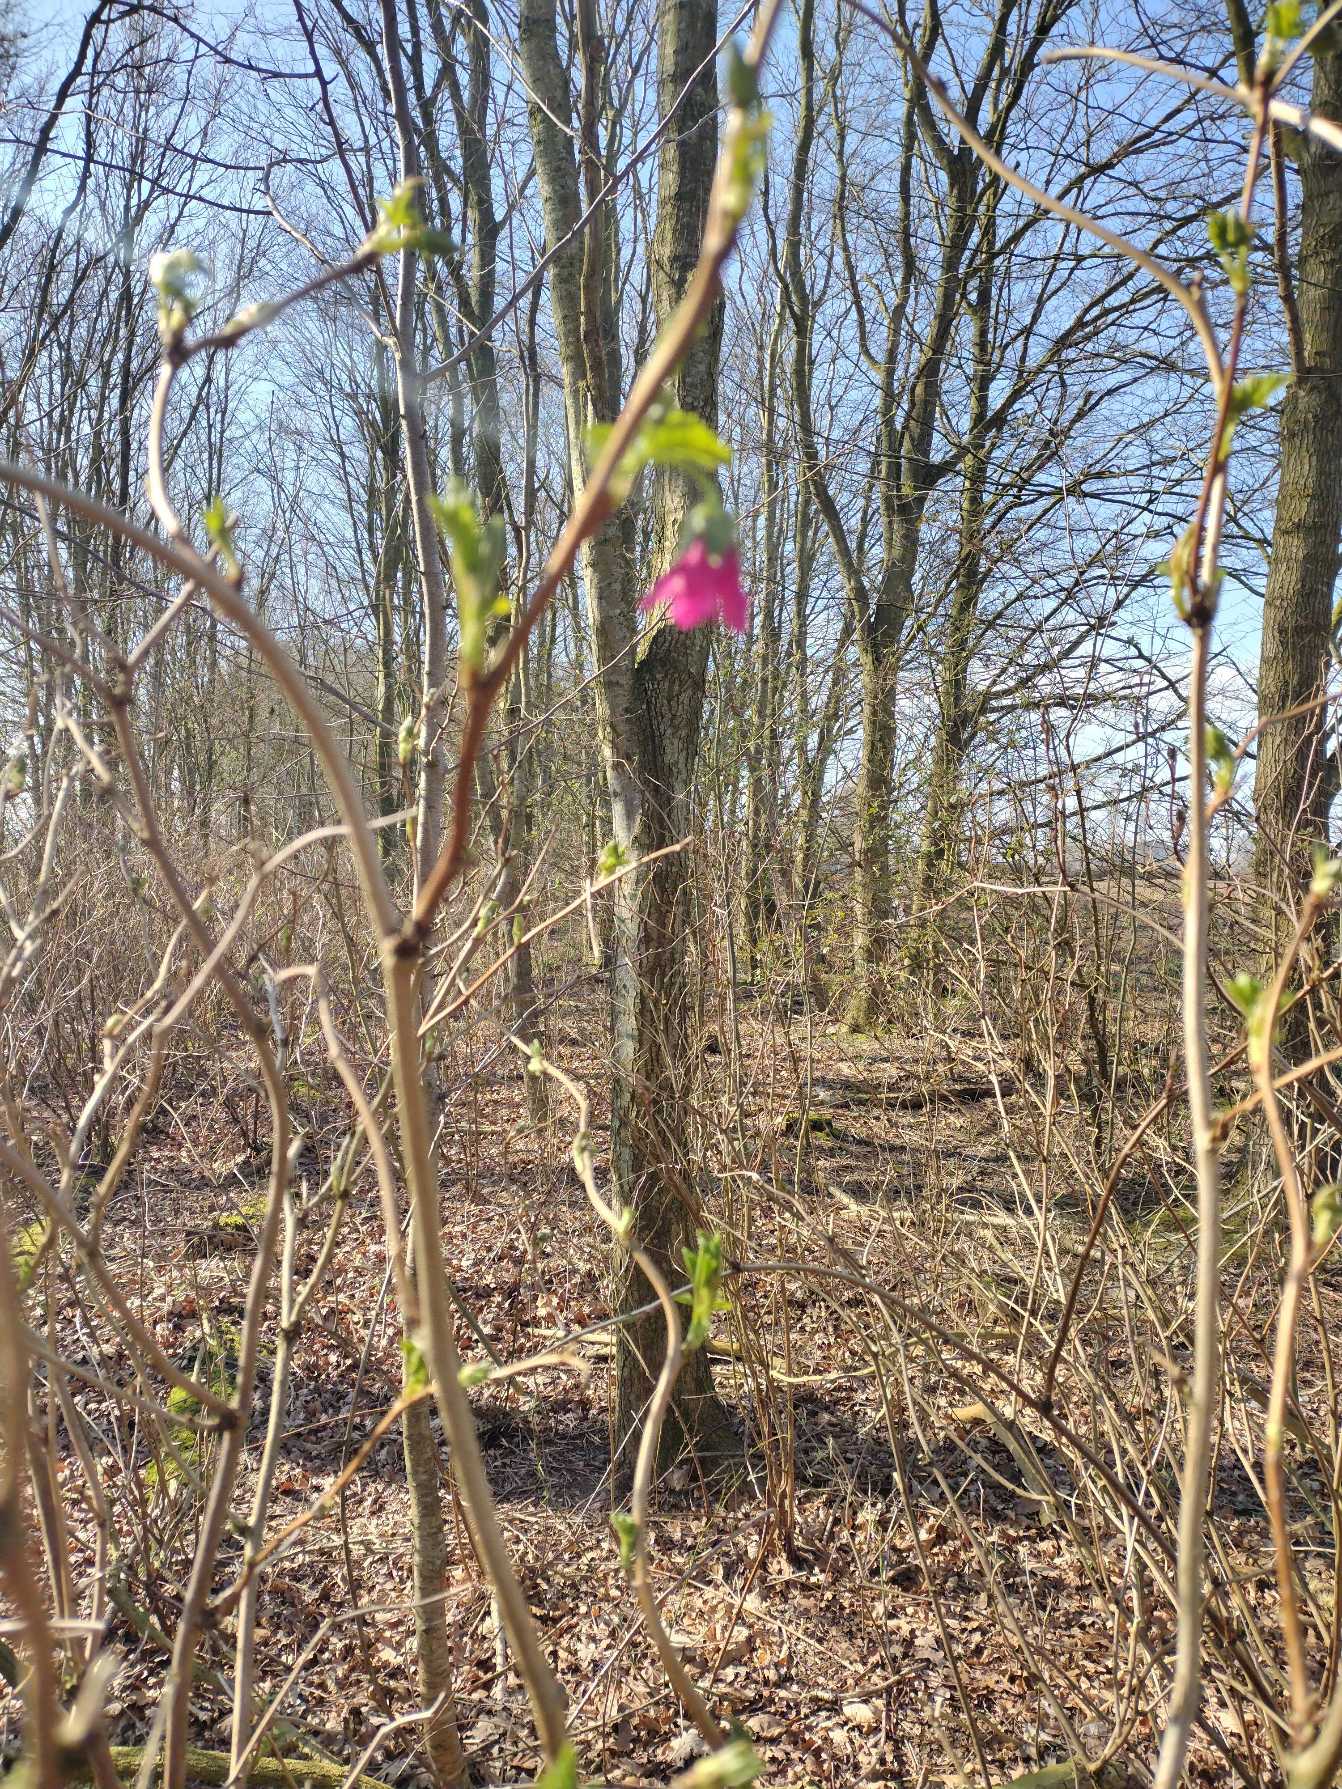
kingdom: Plantae
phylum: Tracheophyta
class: Magnoliopsida
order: Rosales
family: Rosaceae
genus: Rubus
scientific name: Rubus spectabilis
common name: Laksebær
